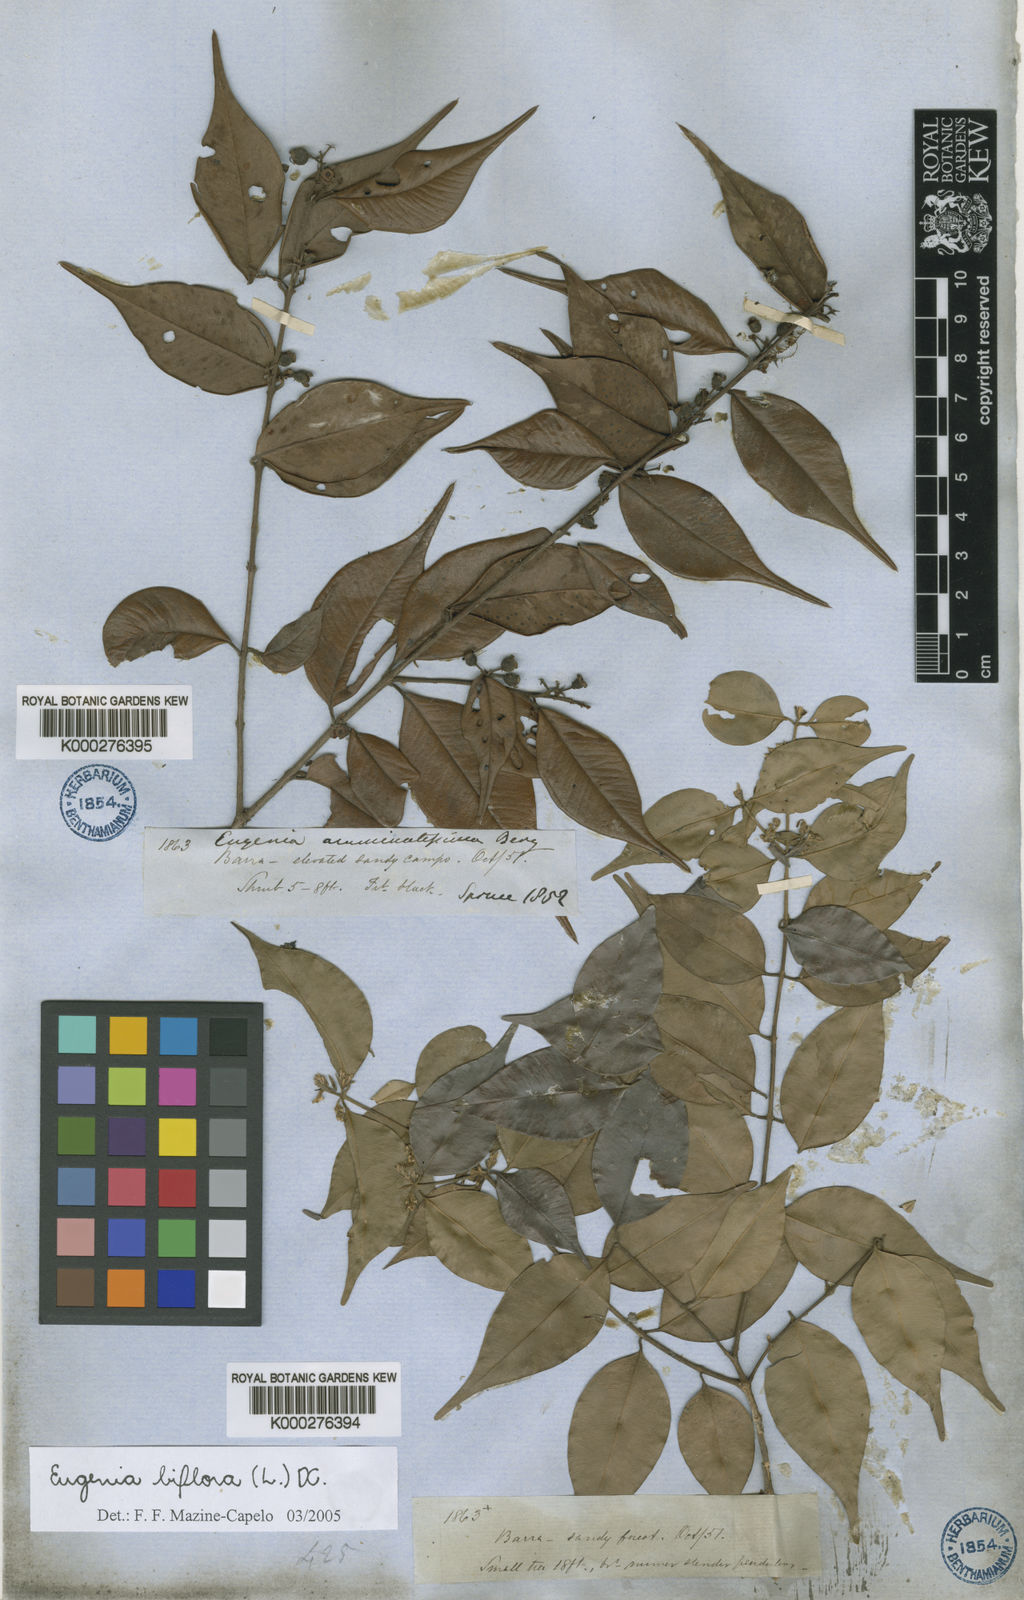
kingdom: Plantae
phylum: Tracheophyta
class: Magnoliopsida
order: Myrtales
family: Myrtaceae
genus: Eugenia
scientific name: Eugenia biflora
